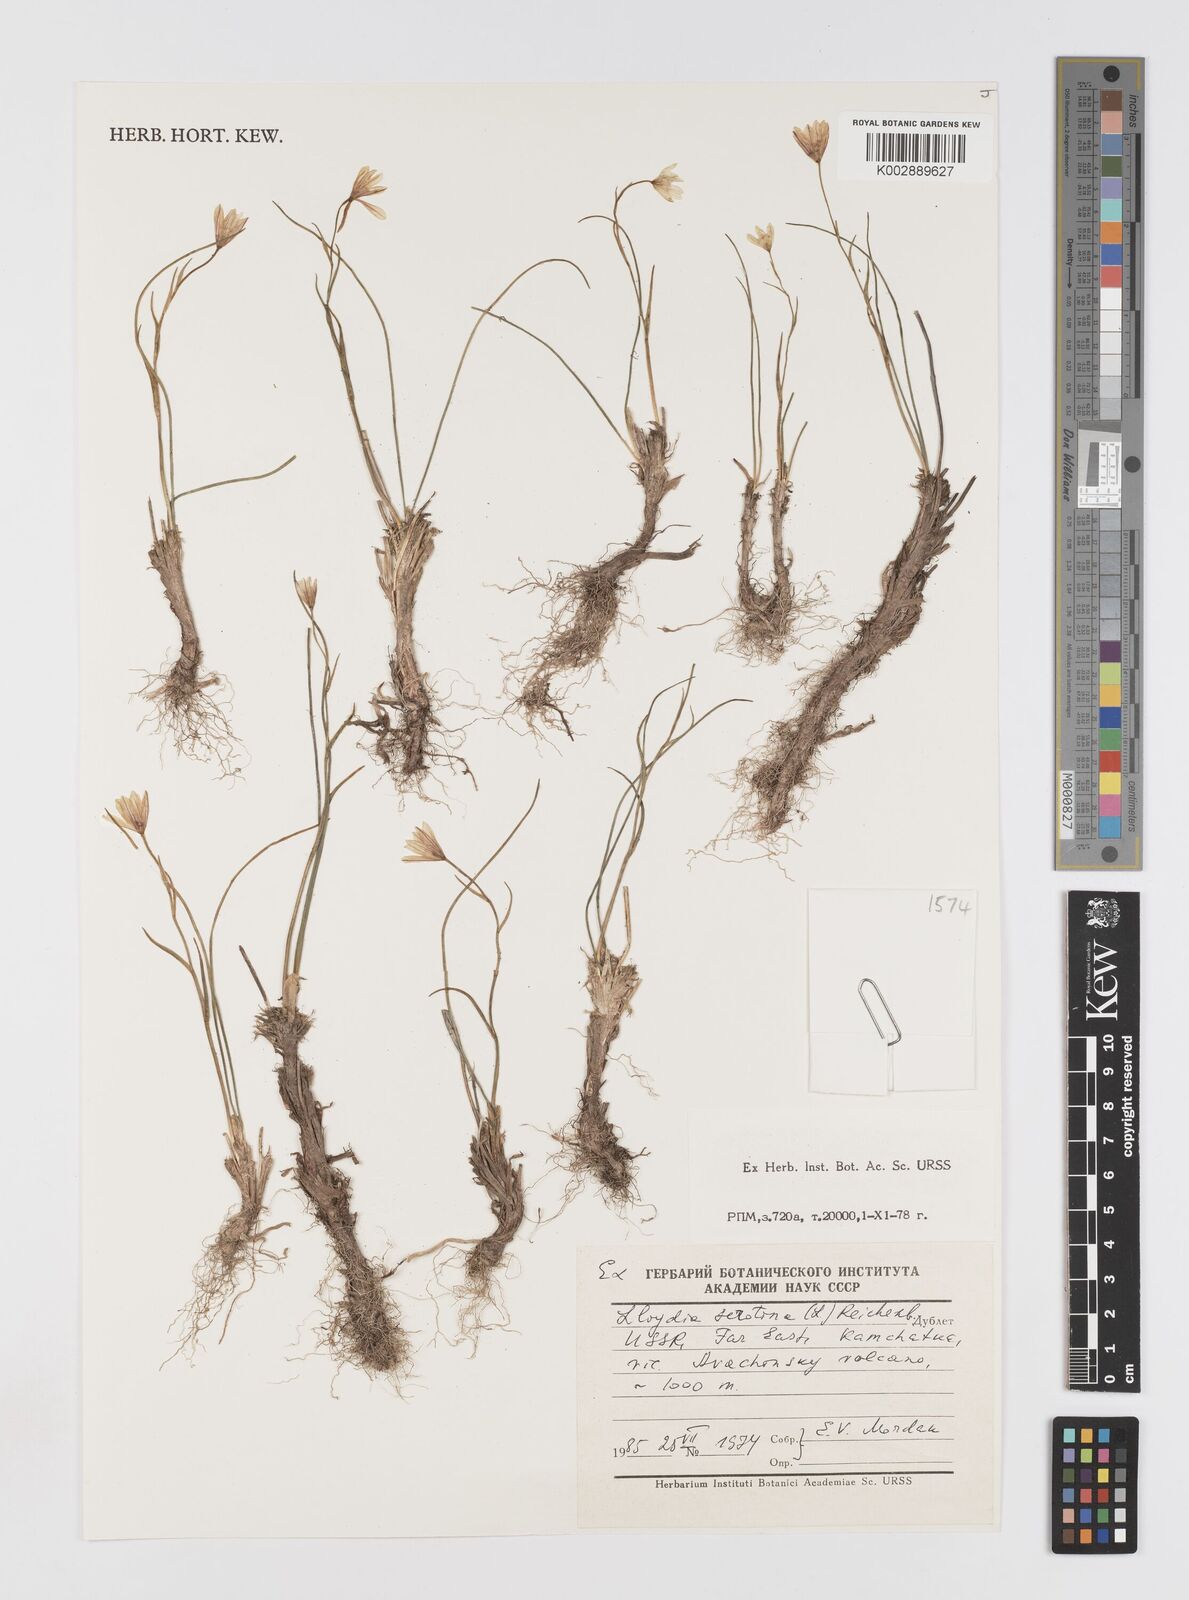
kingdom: Plantae
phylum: Tracheophyta
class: Liliopsida
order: Liliales
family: Liliaceae
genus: Gagea
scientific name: Gagea serotina
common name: Snowdon lily
